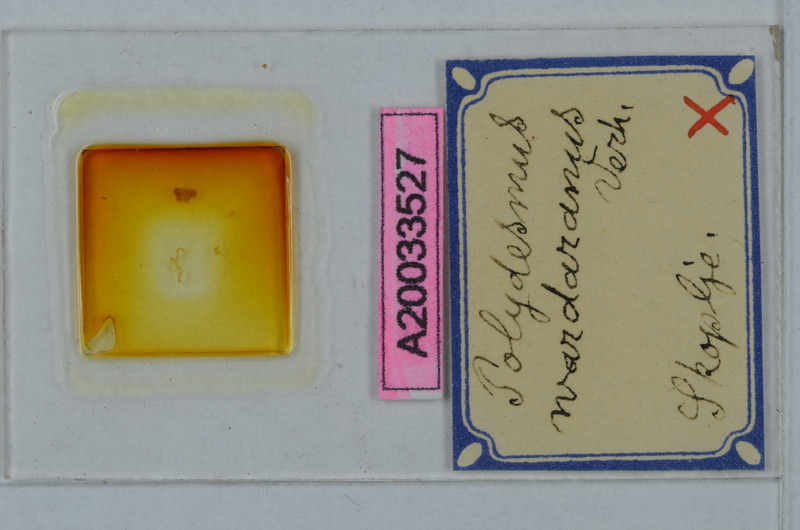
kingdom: Animalia
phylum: Arthropoda
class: Diplopoda
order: Polydesmida
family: Polydesmidae
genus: Polydesmus
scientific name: Polydesmus wardaranus
